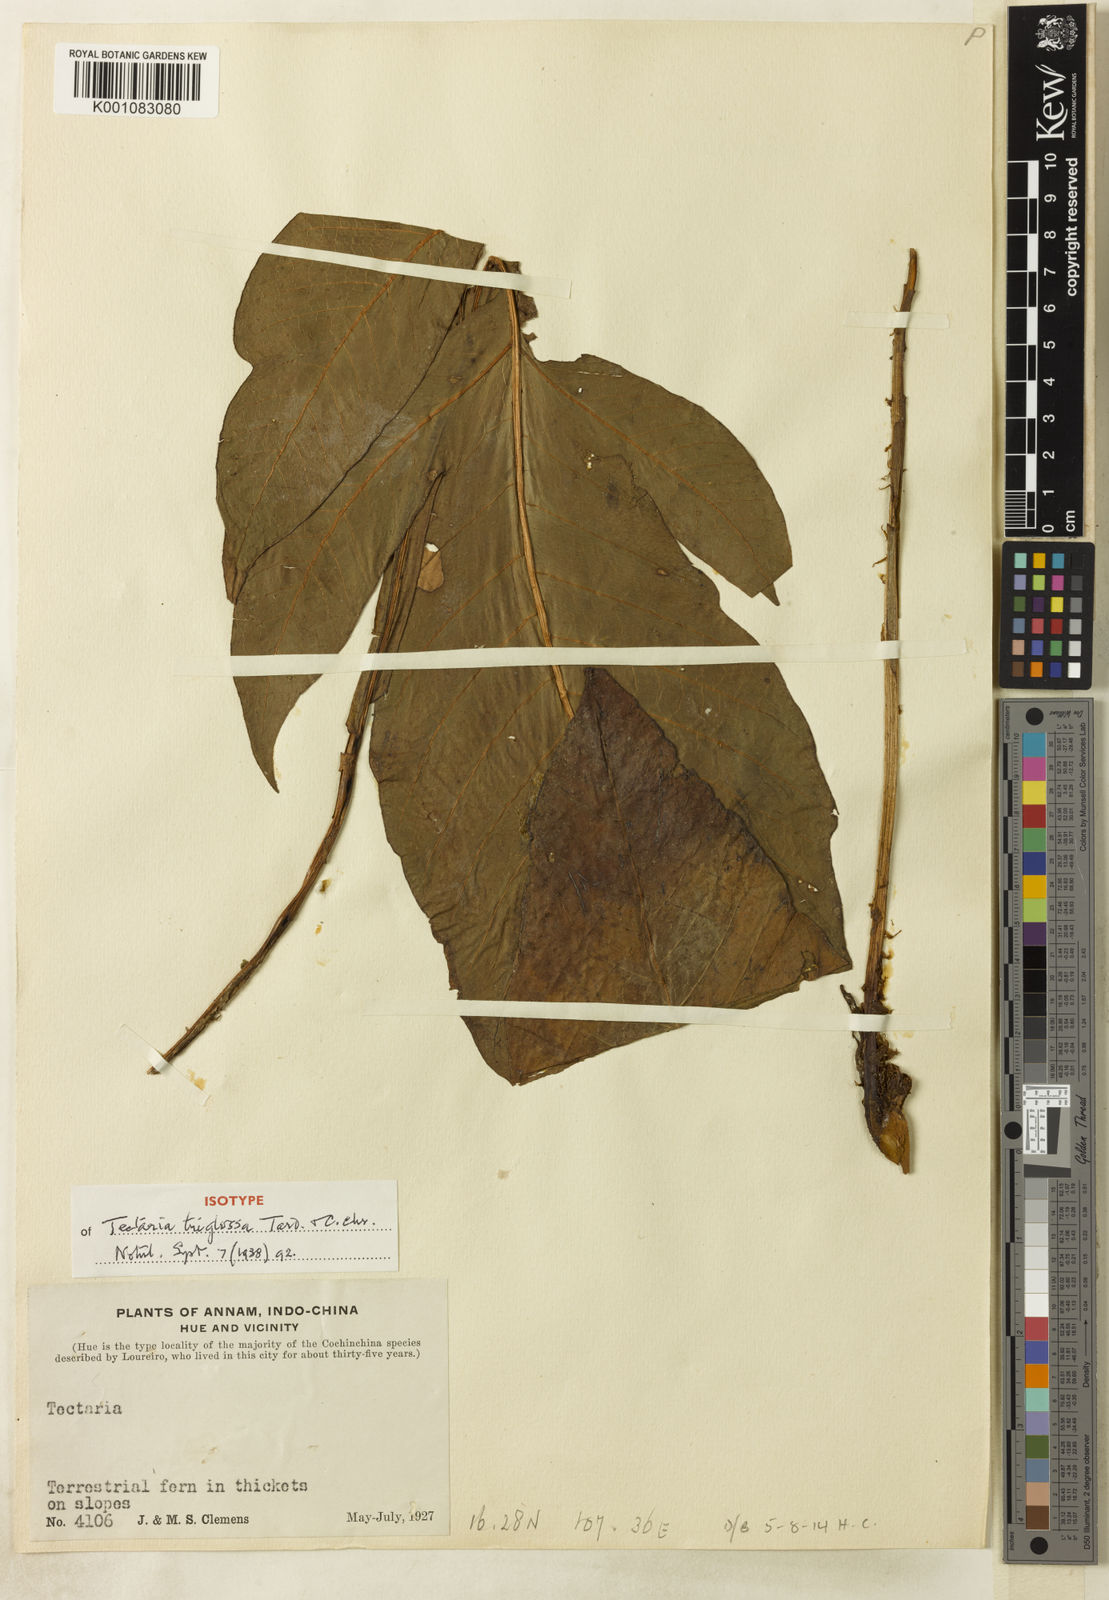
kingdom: Plantae
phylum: Tracheophyta
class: Polypodiopsida
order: Polypodiales
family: Tectariaceae
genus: Tectaria
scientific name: Tectaria triglossa
